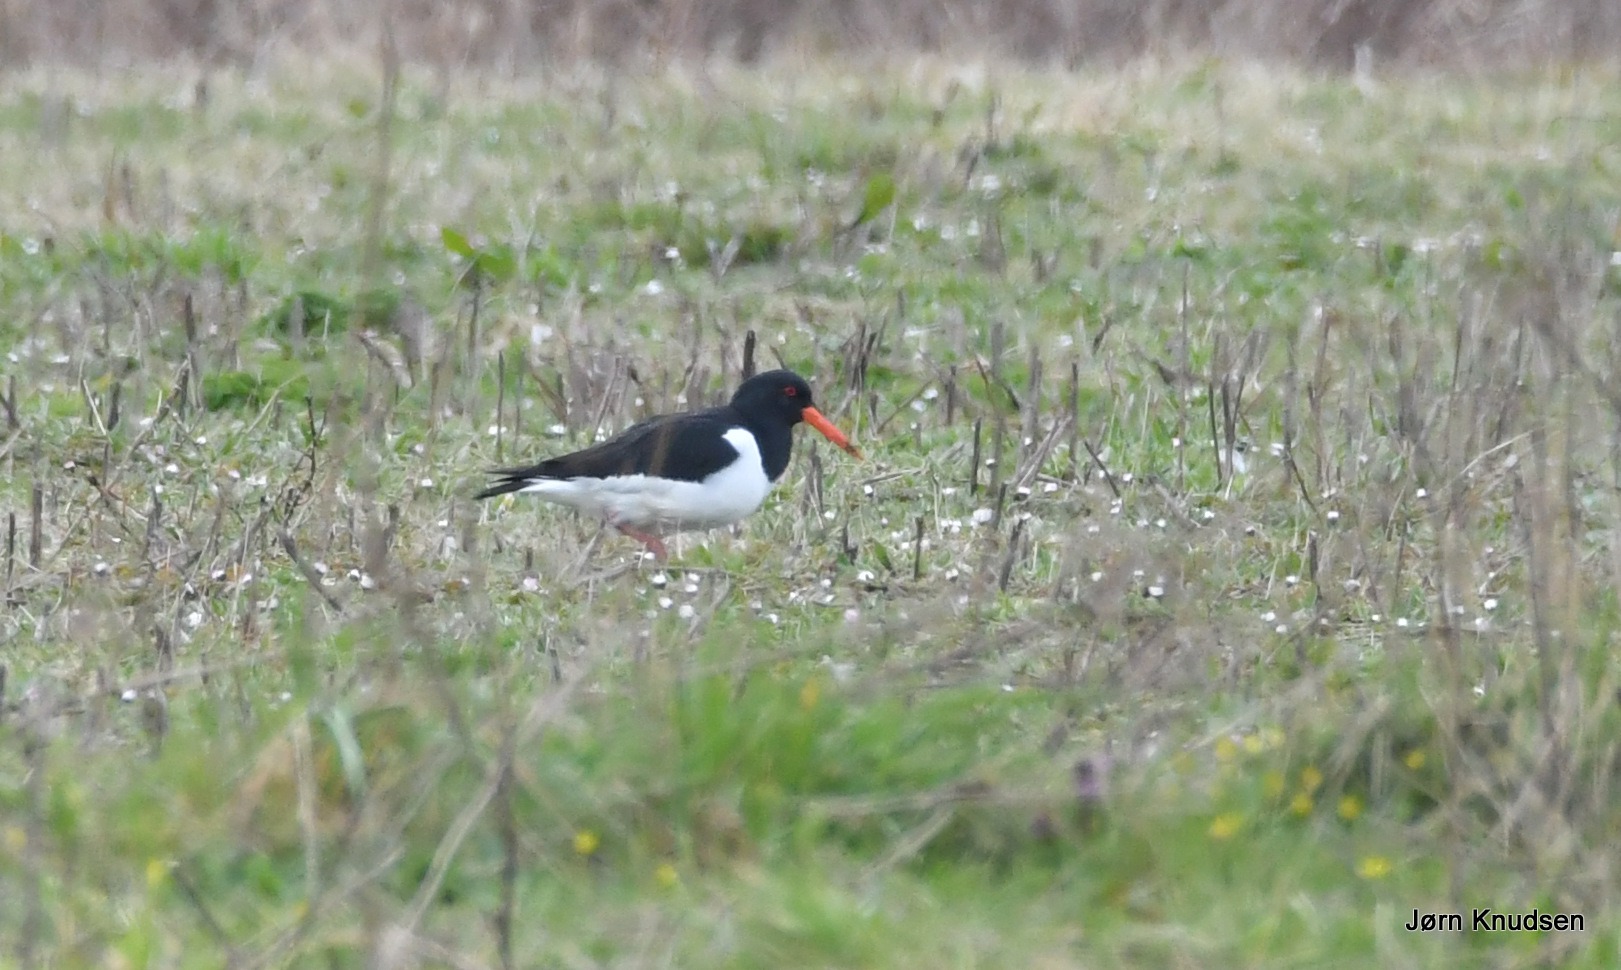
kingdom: Animalia
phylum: Chordata
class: Aves
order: Charadriiformes
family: Haematopodidae
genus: Haematopus
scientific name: Haematopus ostralegus
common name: Strandskade
